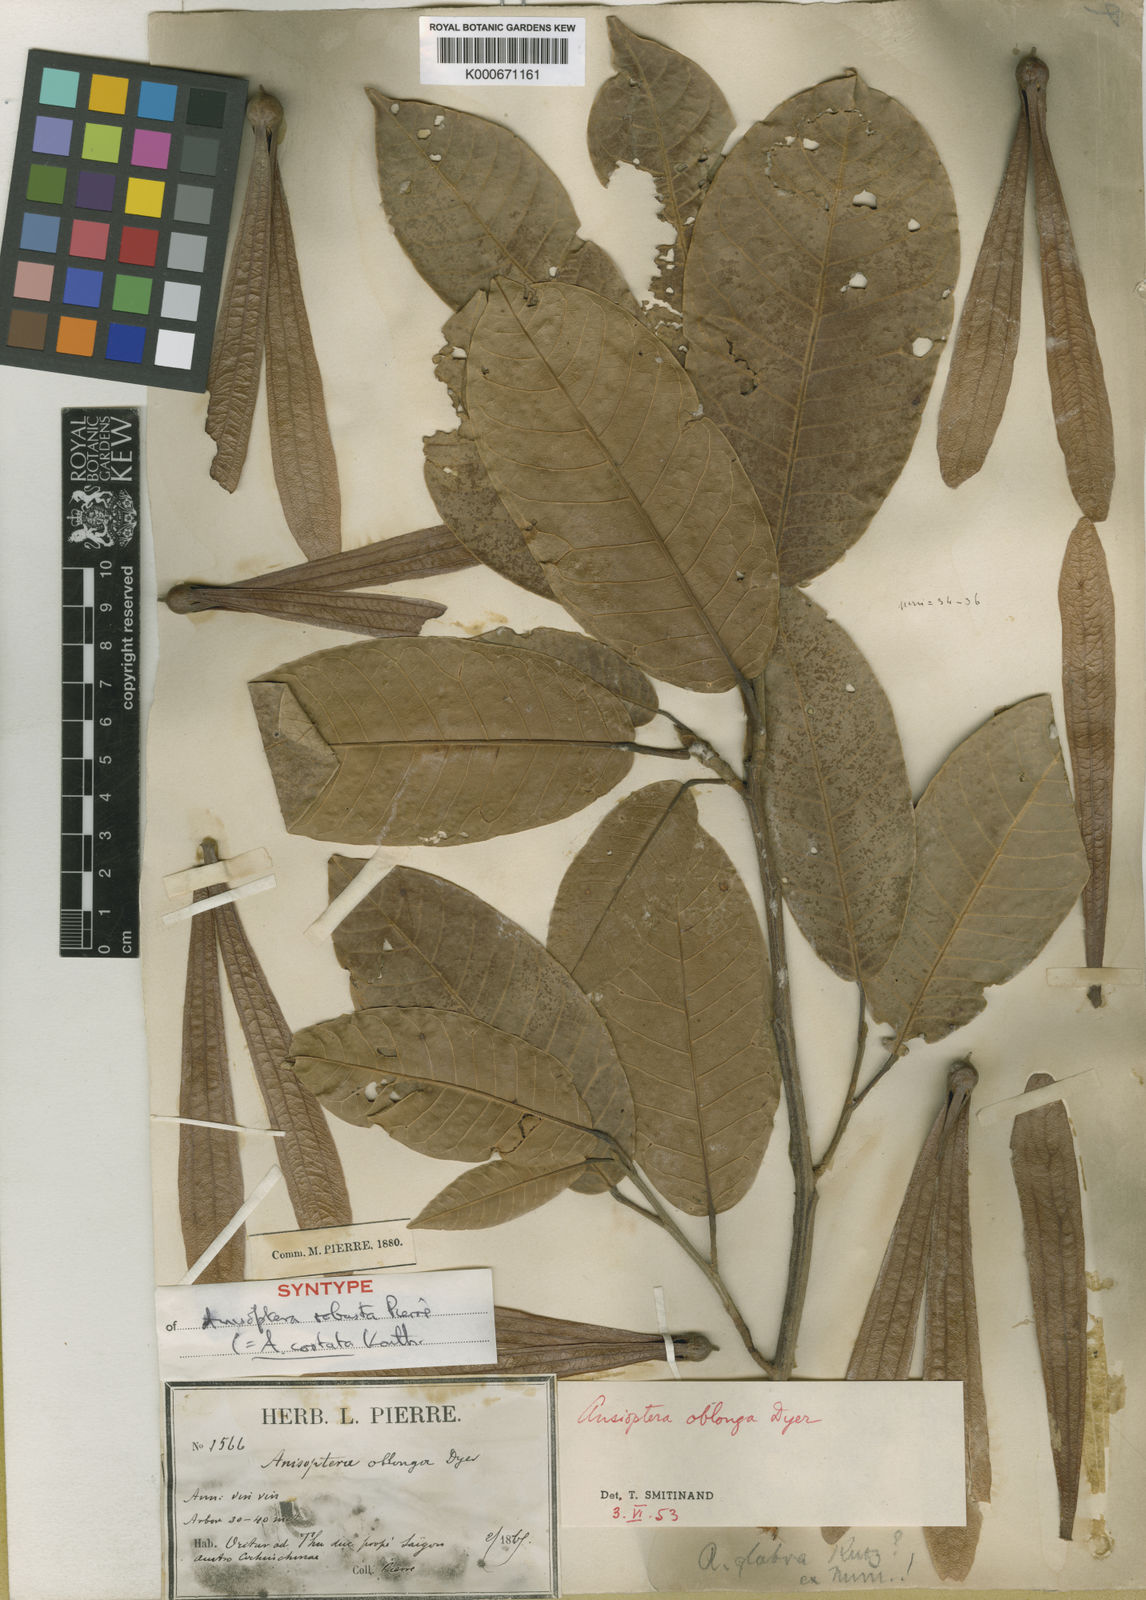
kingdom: Plantae
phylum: Tracheophyta
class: Magnoliopsida
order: Malvales
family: Dipterocarpaceae
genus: Anisoptera
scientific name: Anisoptera costata
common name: Mersawa
